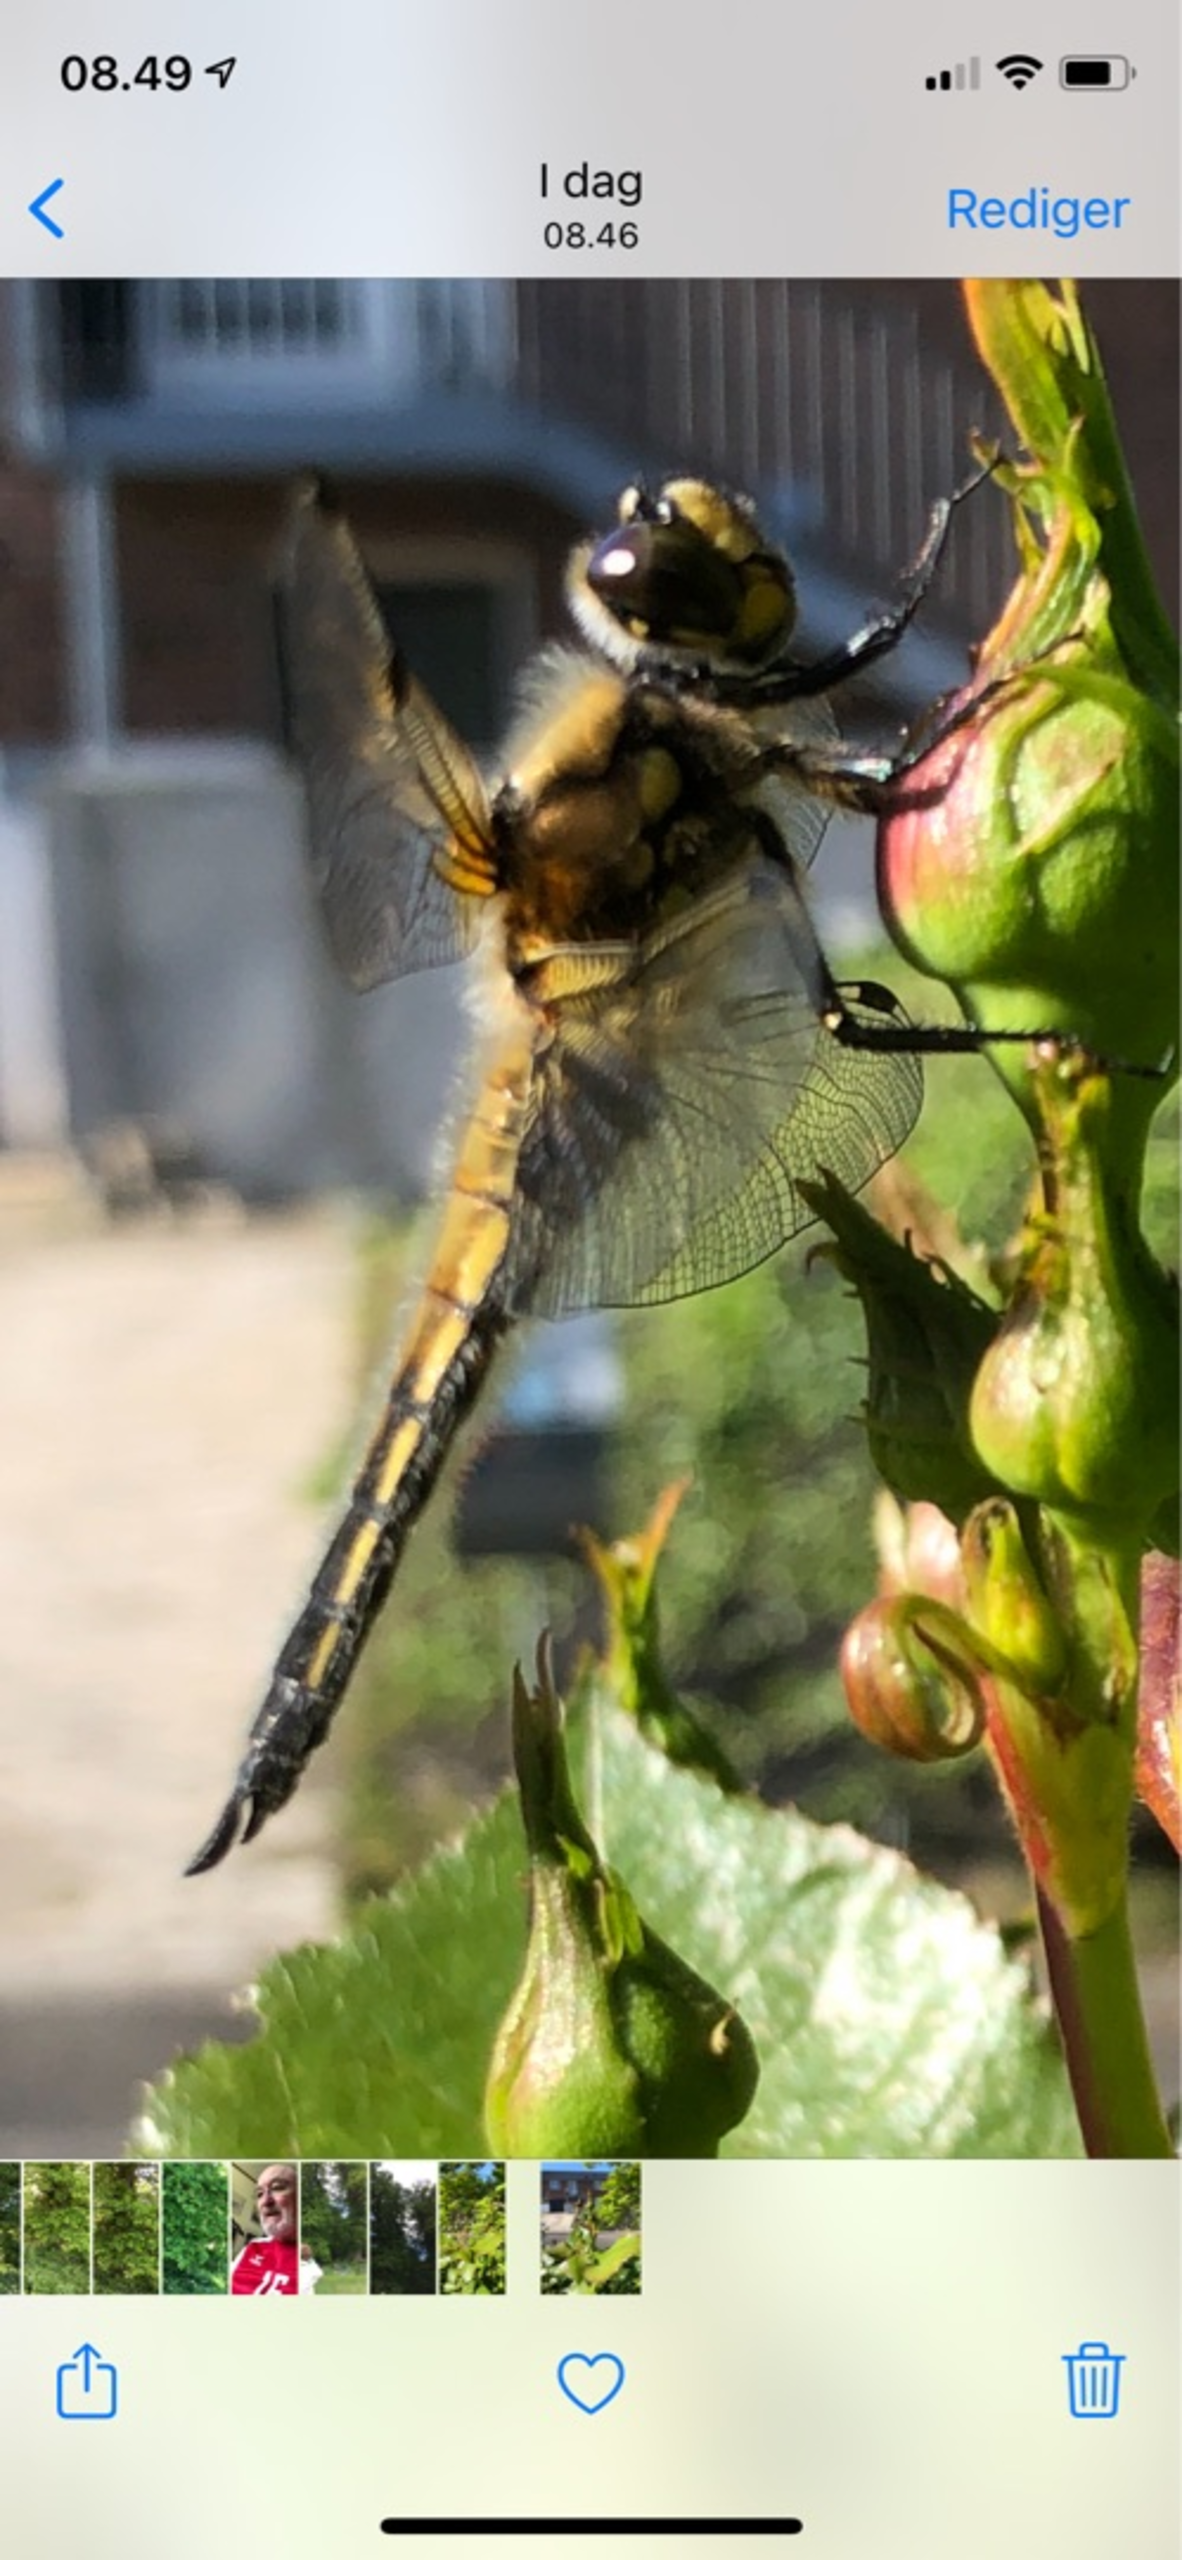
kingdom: Animalia
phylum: Arthropoda
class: Insecta
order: Odonata
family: Libellulidae
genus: Libellula
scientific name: Libellula quadrimaculata
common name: Fireplettet libel
